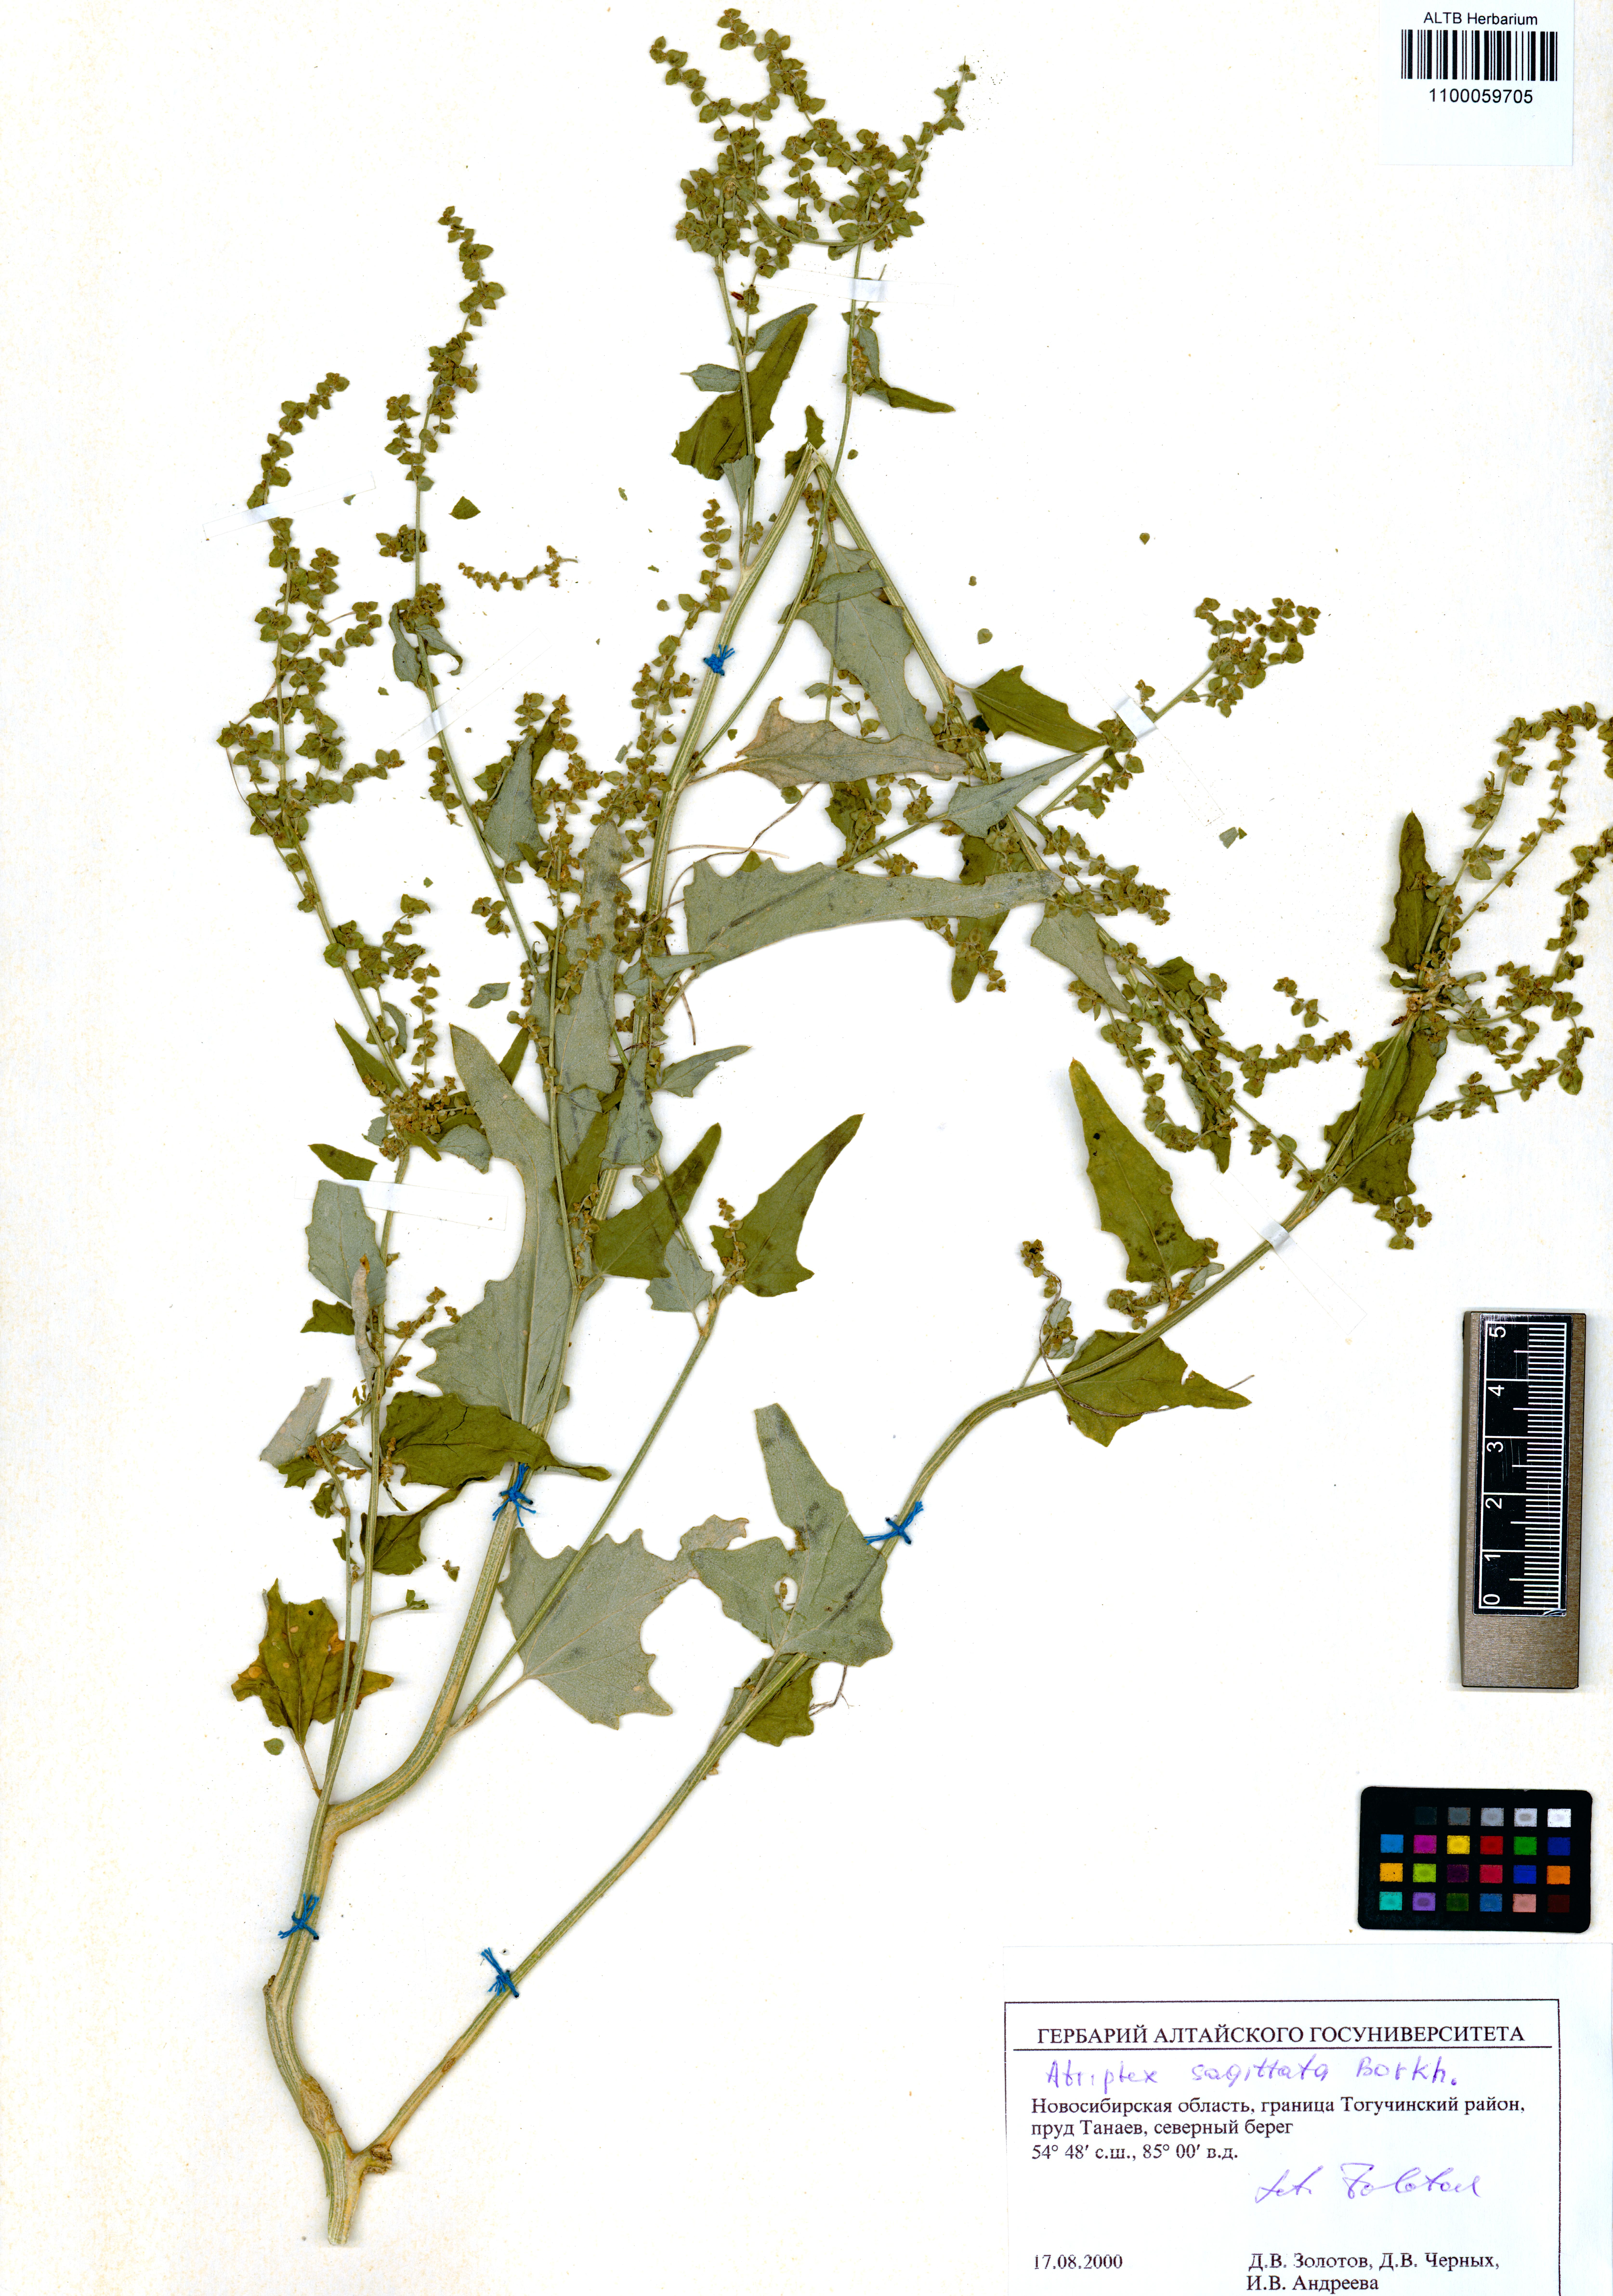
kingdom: Plantae
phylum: Tracheophyta
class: Magnoliopsida
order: Caryophyllales
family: Amaranthaceae
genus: Atriplex
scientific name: Atriplex sagittata
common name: Purple orache
